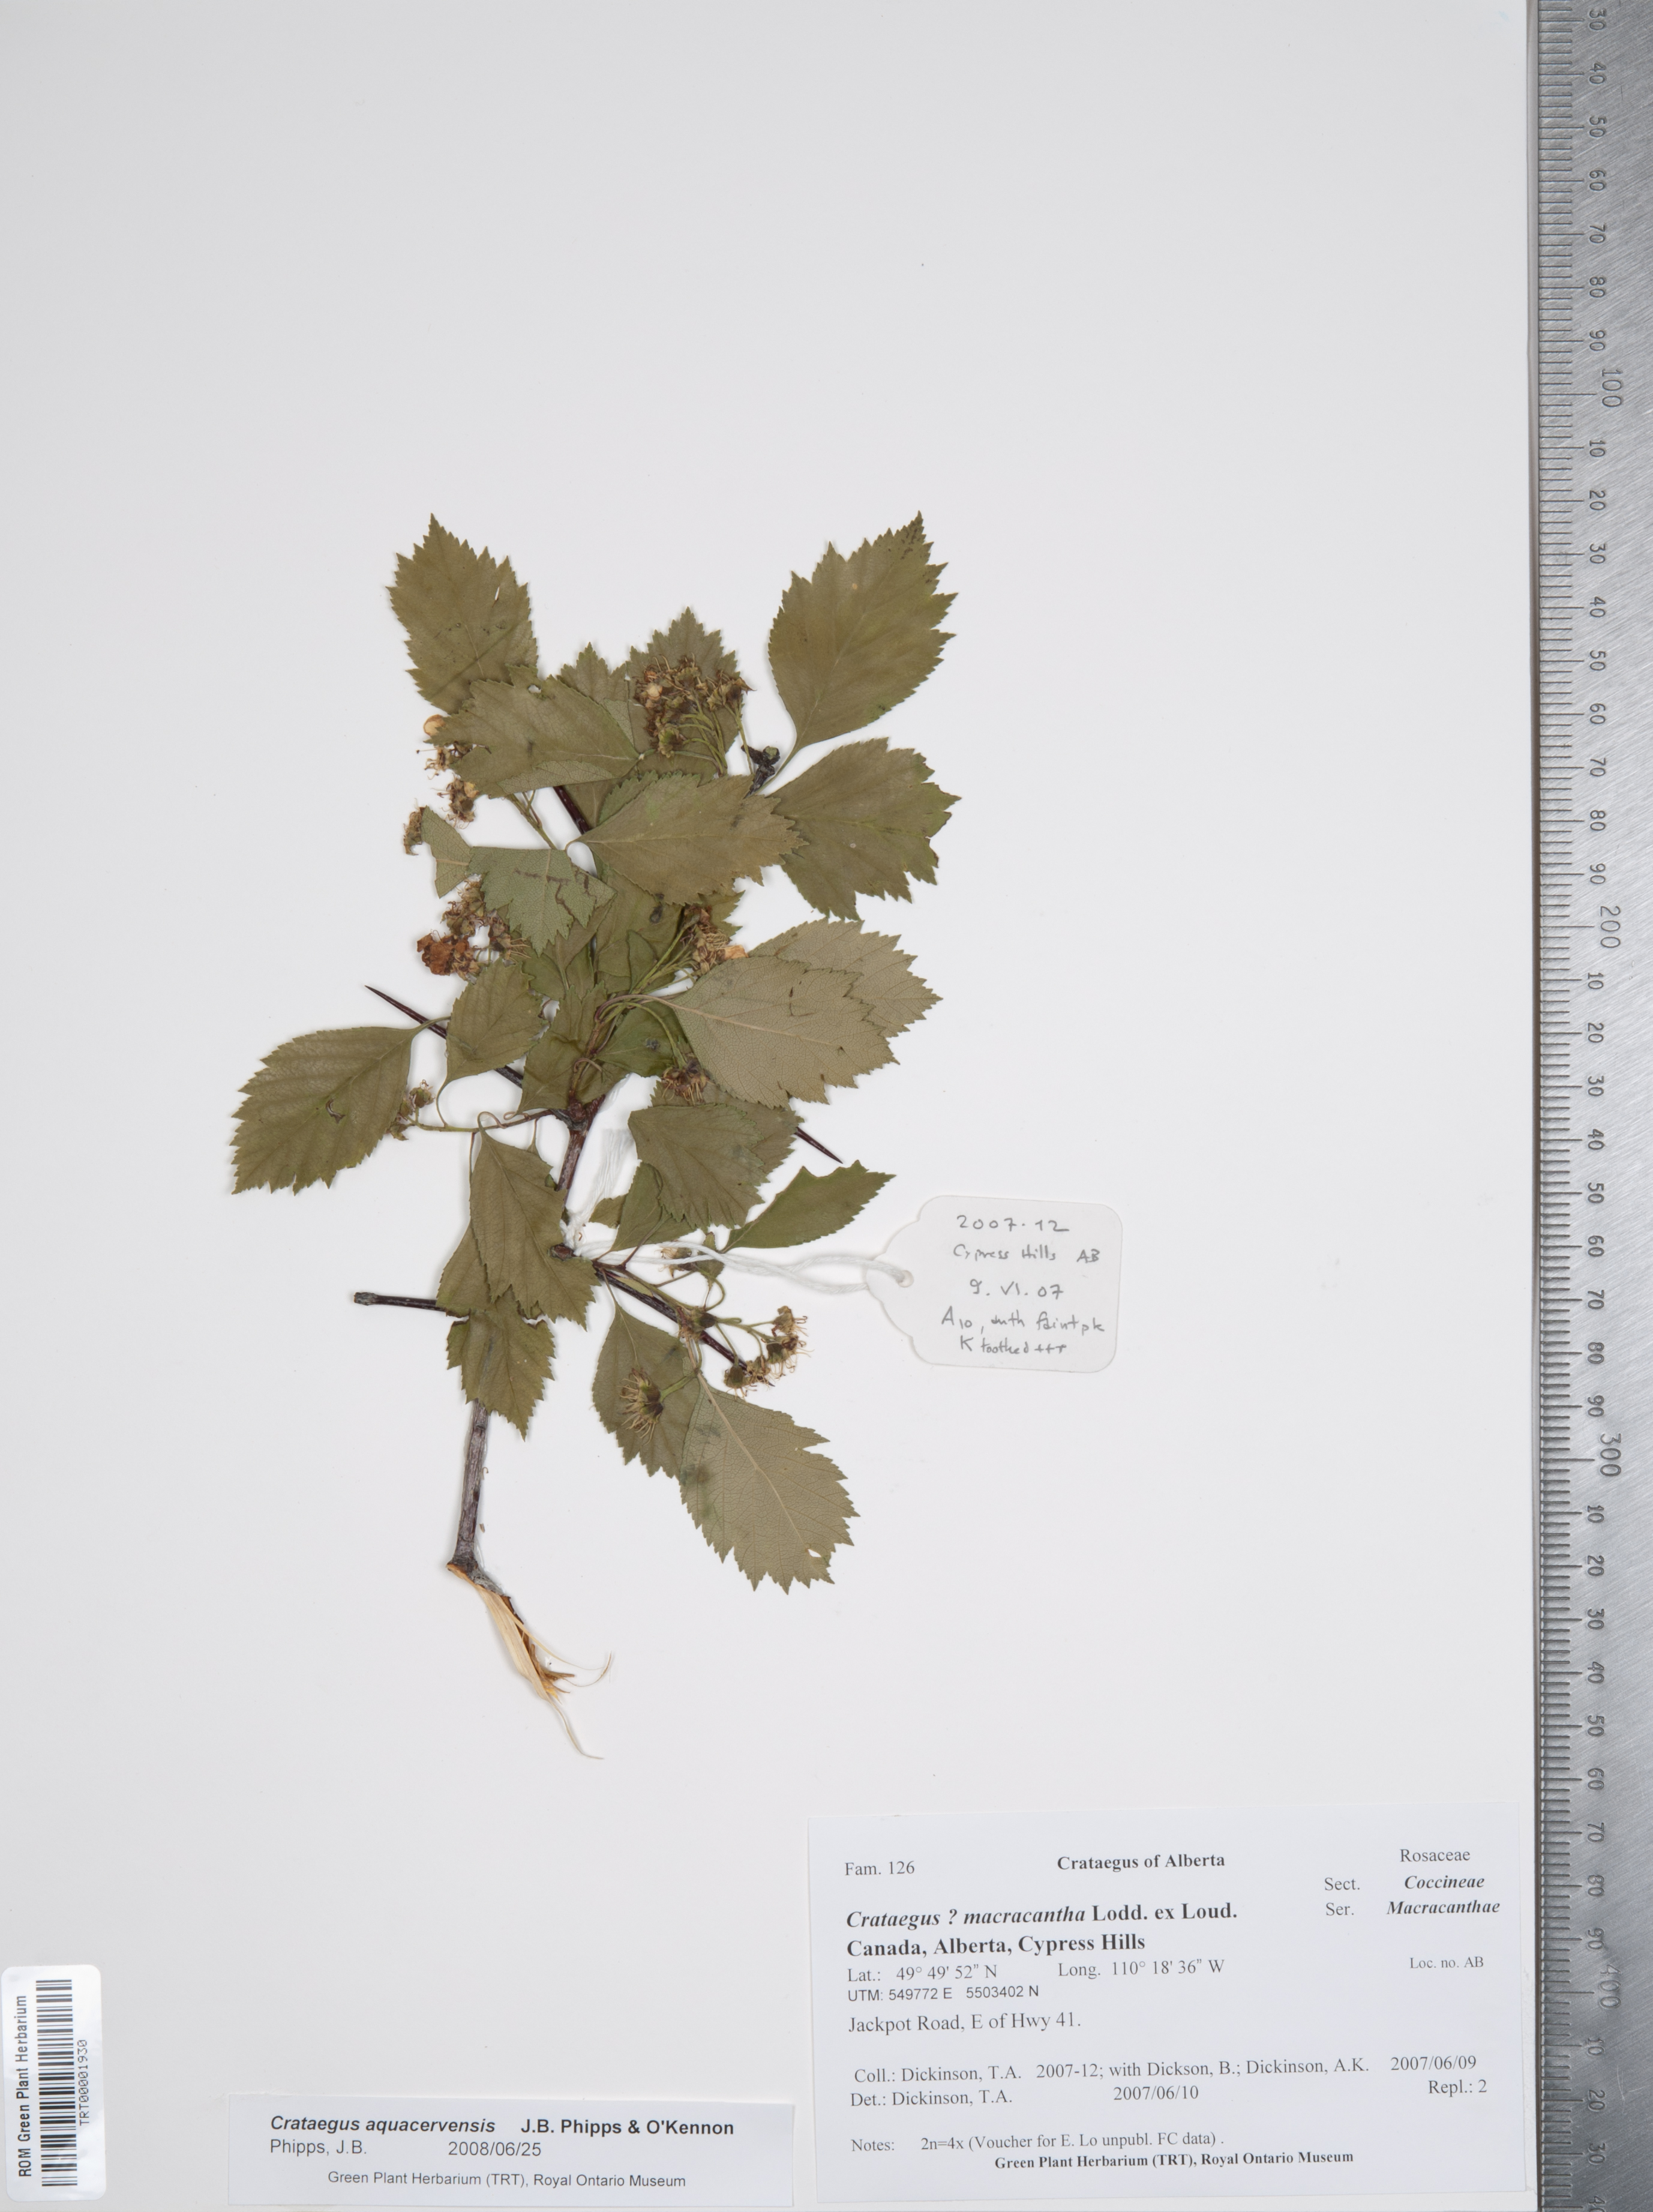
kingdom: Plantae
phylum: Tracheophyta
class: Magnoliopsida
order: Rosales
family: Rosaceae
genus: Crataegus
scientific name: Crataegus aquacervensis
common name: Elkwater hawthorn
